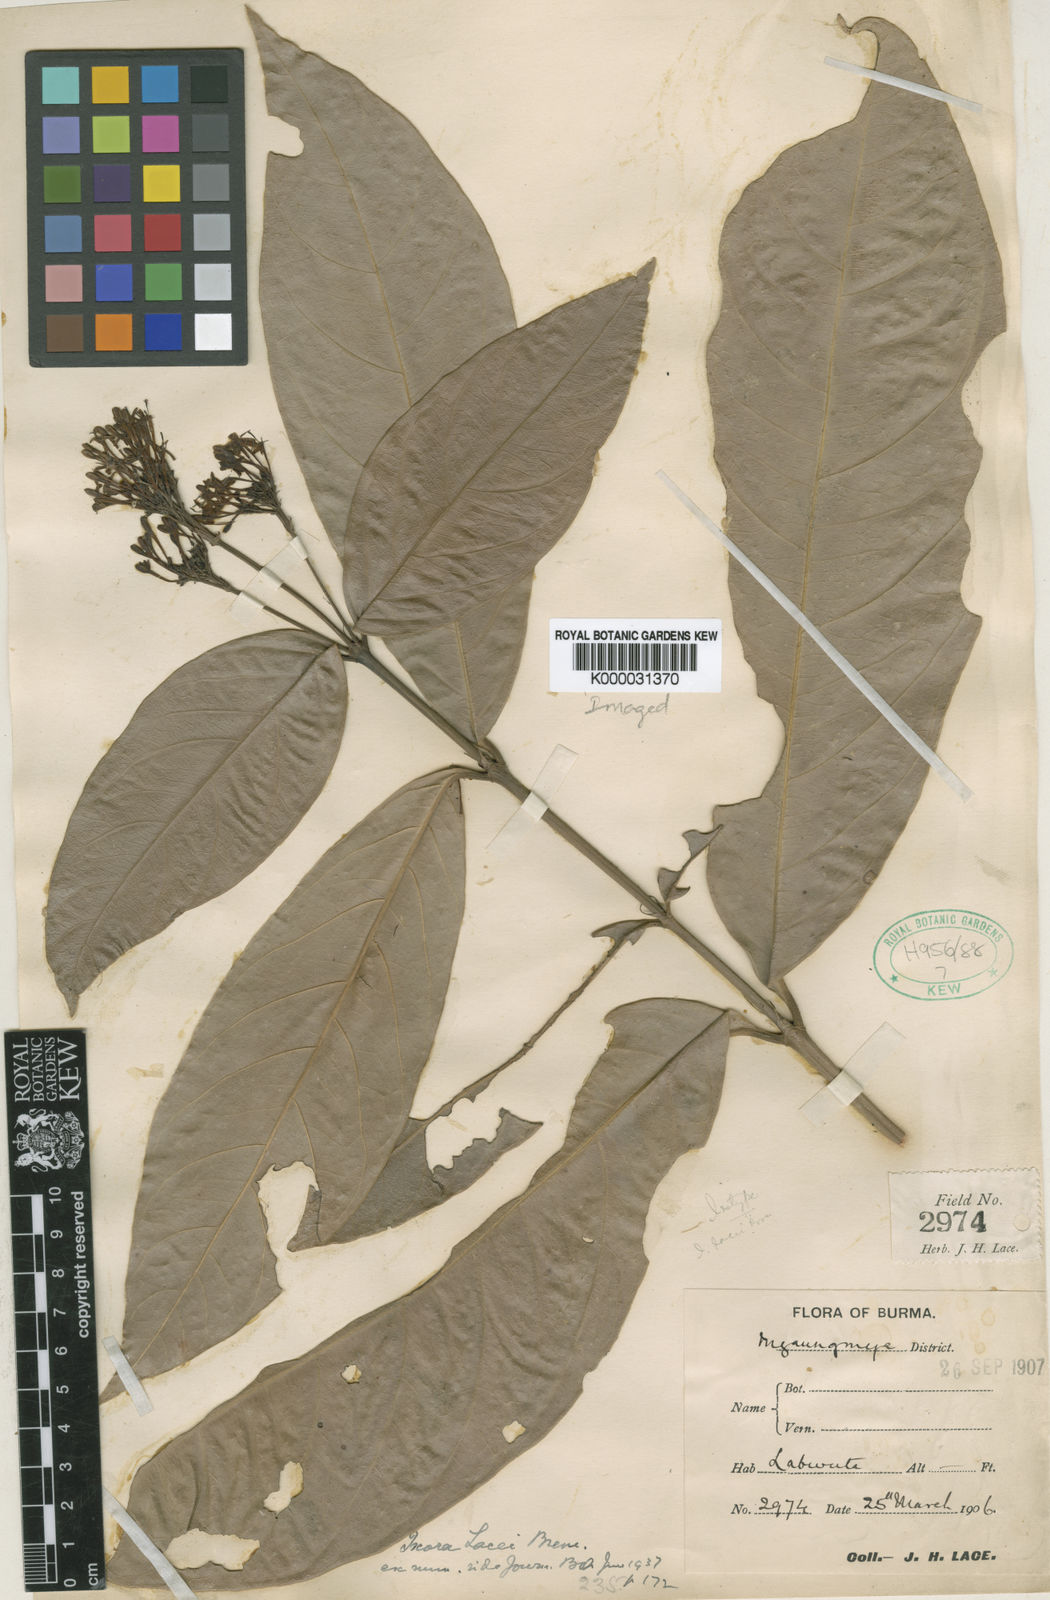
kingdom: Plantae
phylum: Tracheophyta
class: Magnoliopsida
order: Gentianales
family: Rubiaceae
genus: Ixora
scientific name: Ixora lacei
